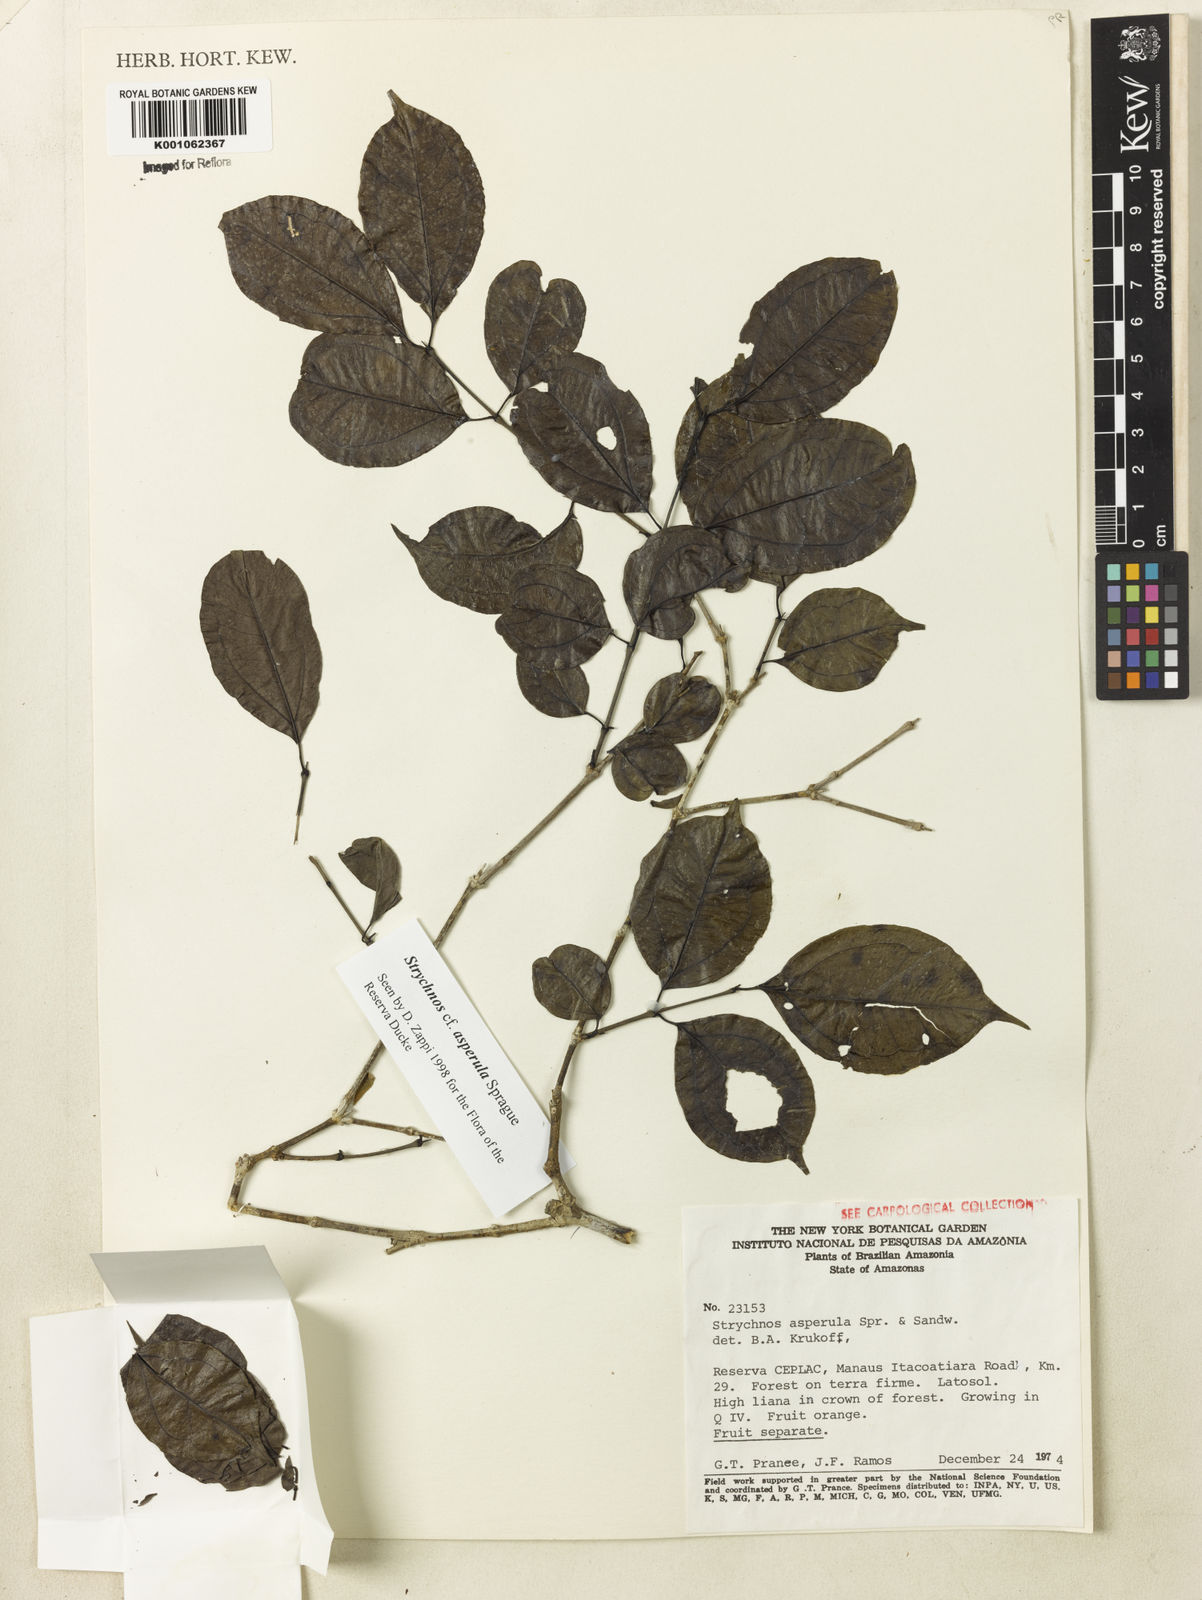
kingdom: Plantae
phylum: Tracheophyta
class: Magnoliopsida
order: Gentianales
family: Loganiaceae
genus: Strychnos
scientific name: Strychnos asperula
